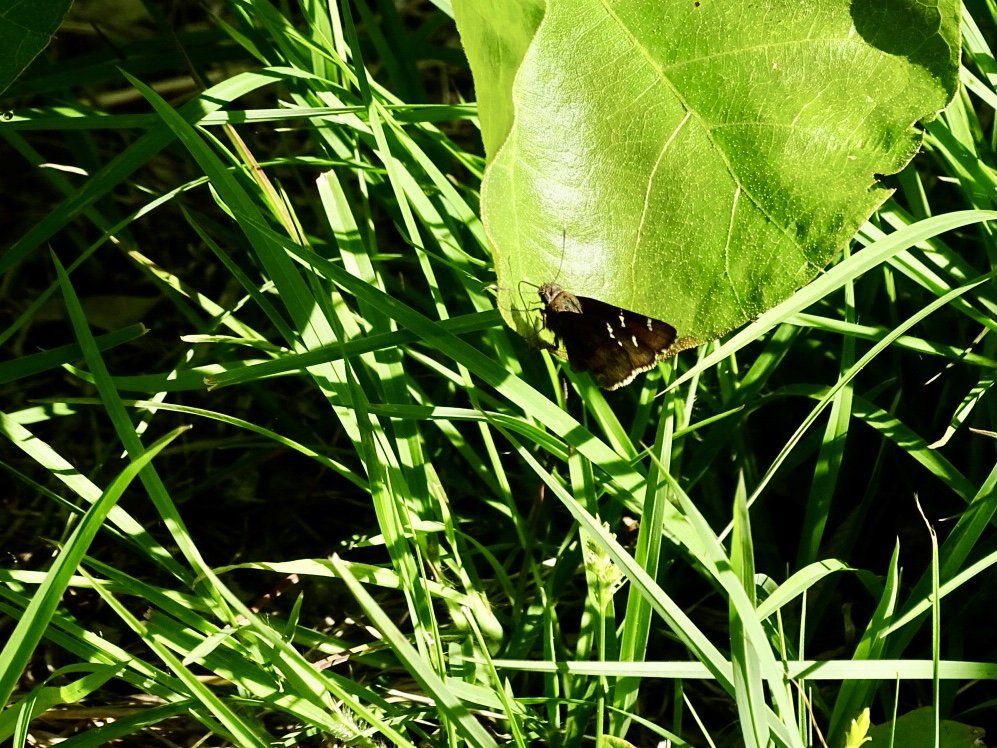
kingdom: Animalia
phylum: Arthropoda
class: Insecta
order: Lepidoptera
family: Hesperiidae
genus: Autochton
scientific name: Autochton
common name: Northern Cloudywing
